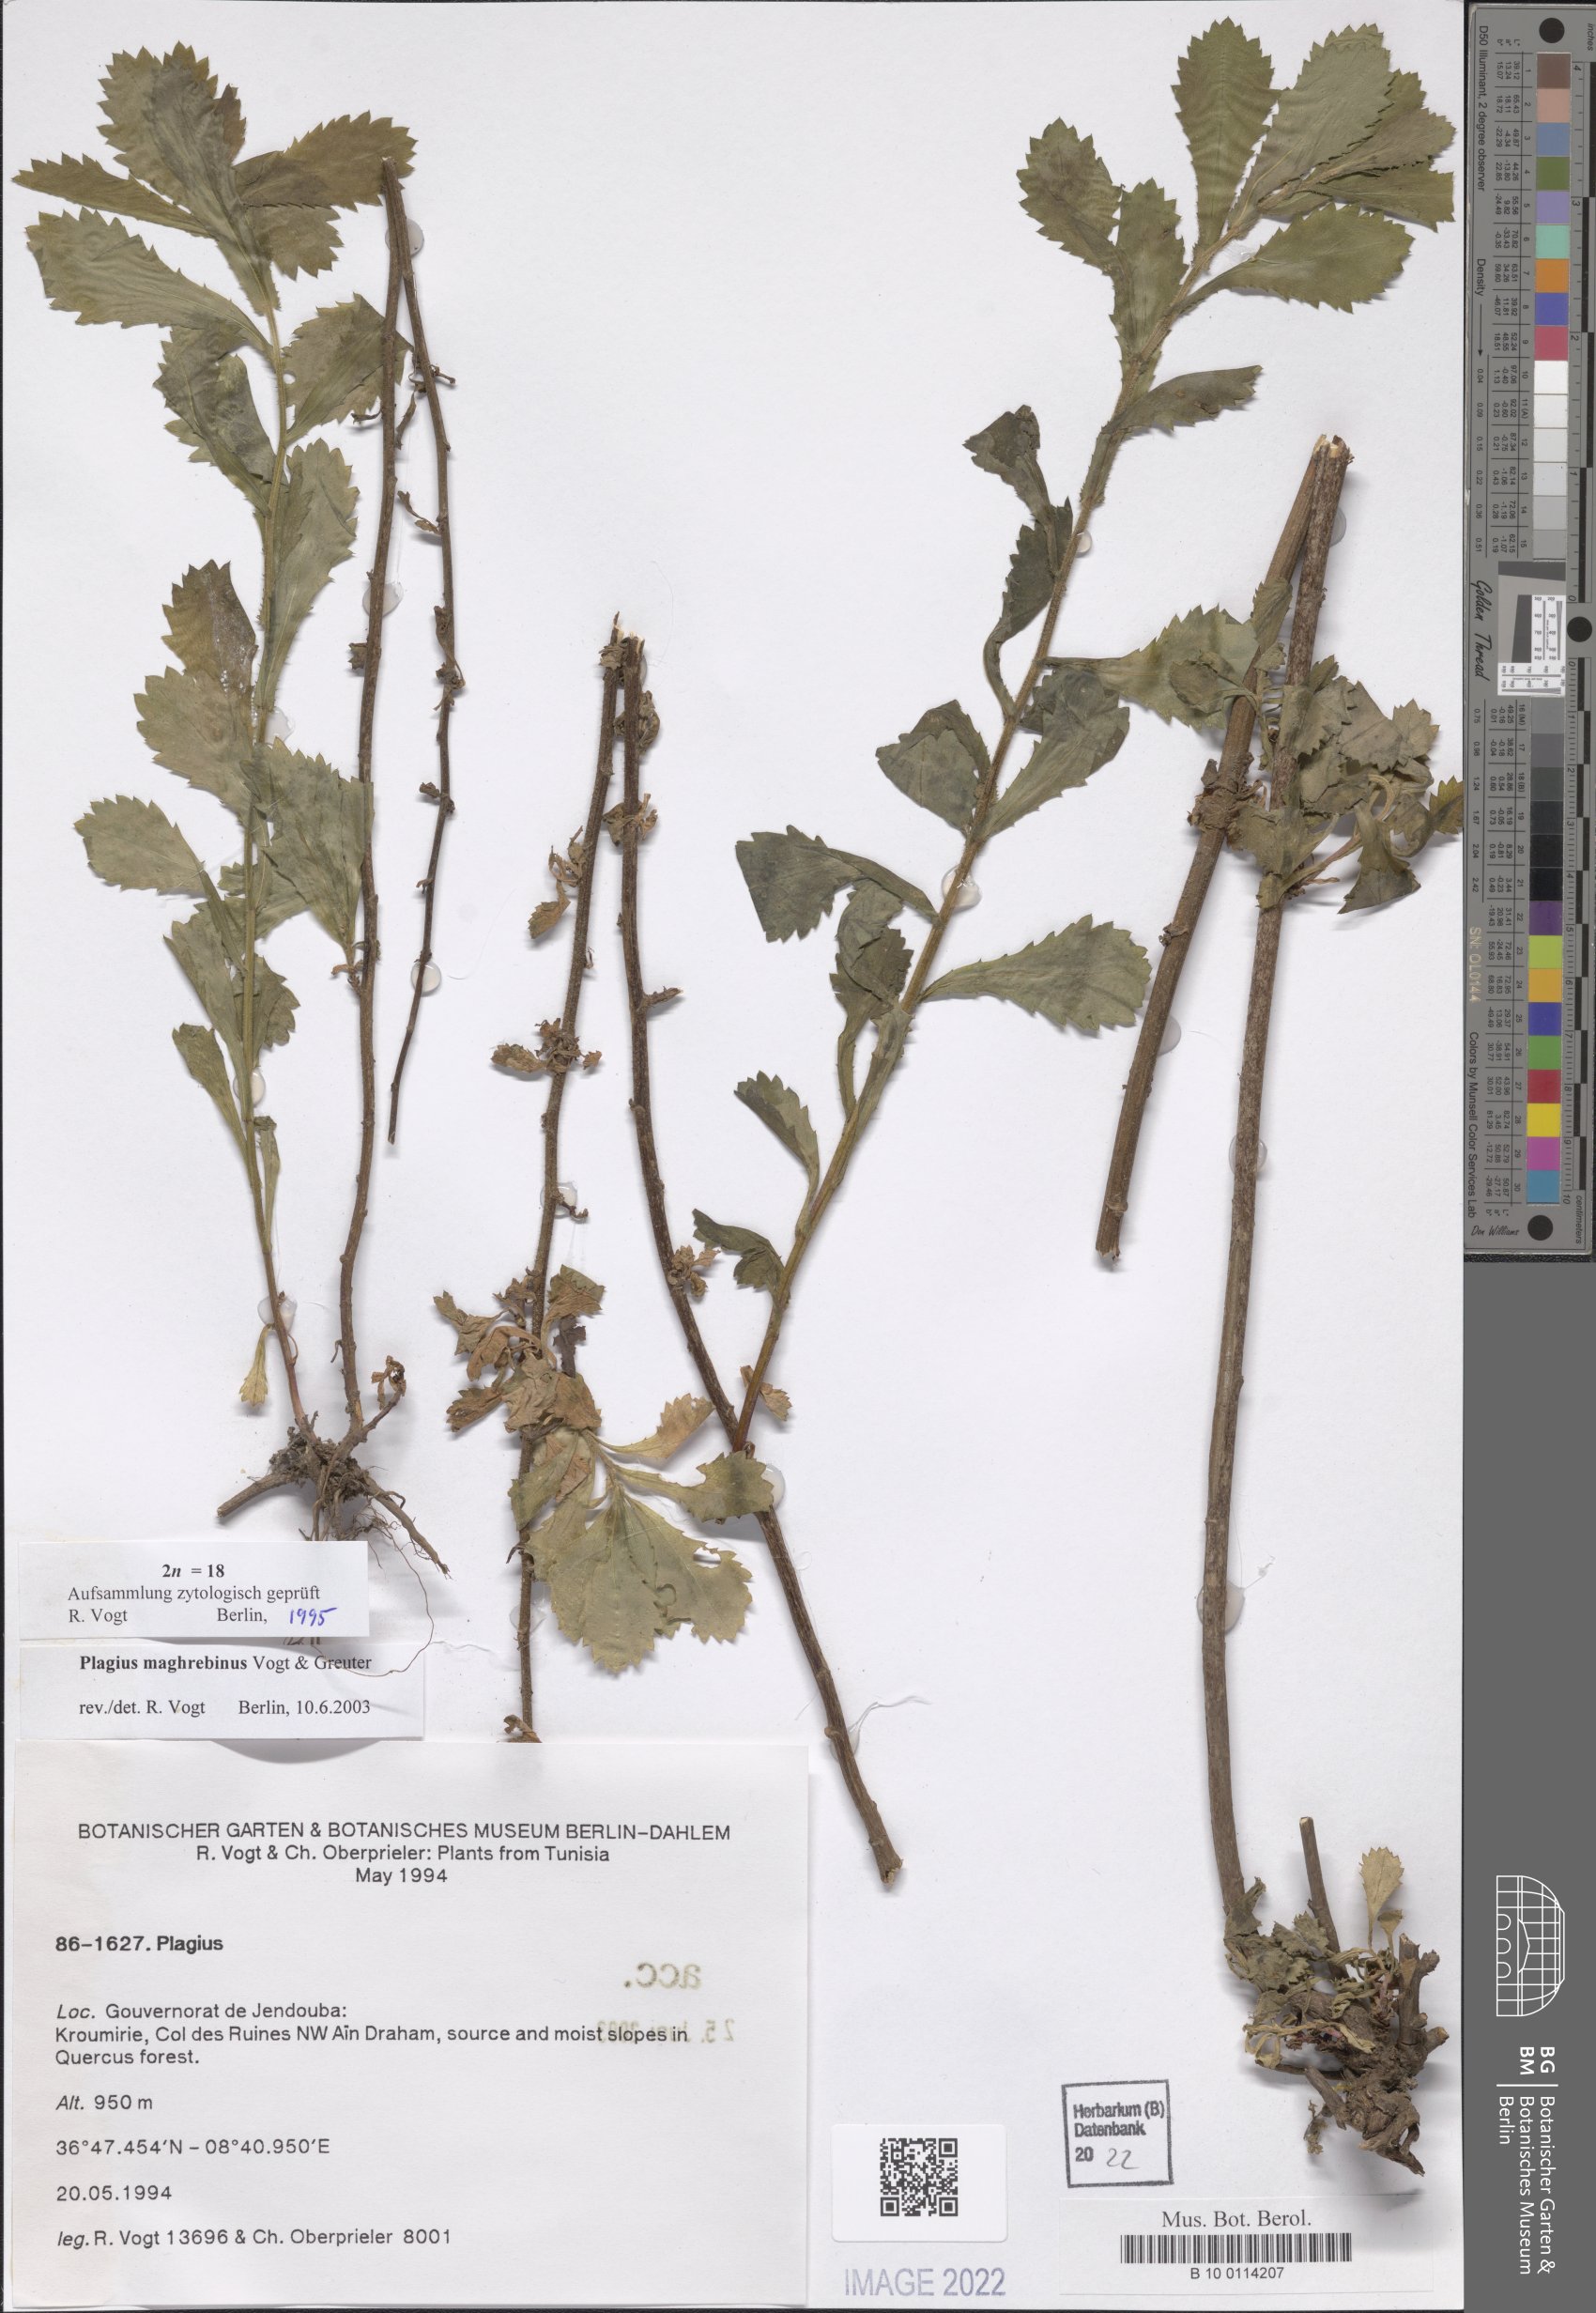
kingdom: Plantae
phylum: Tracheophyta
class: Magnoliopsida
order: Asterales
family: Asteraceae
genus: Plagius
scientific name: Plagius maghrebinus
